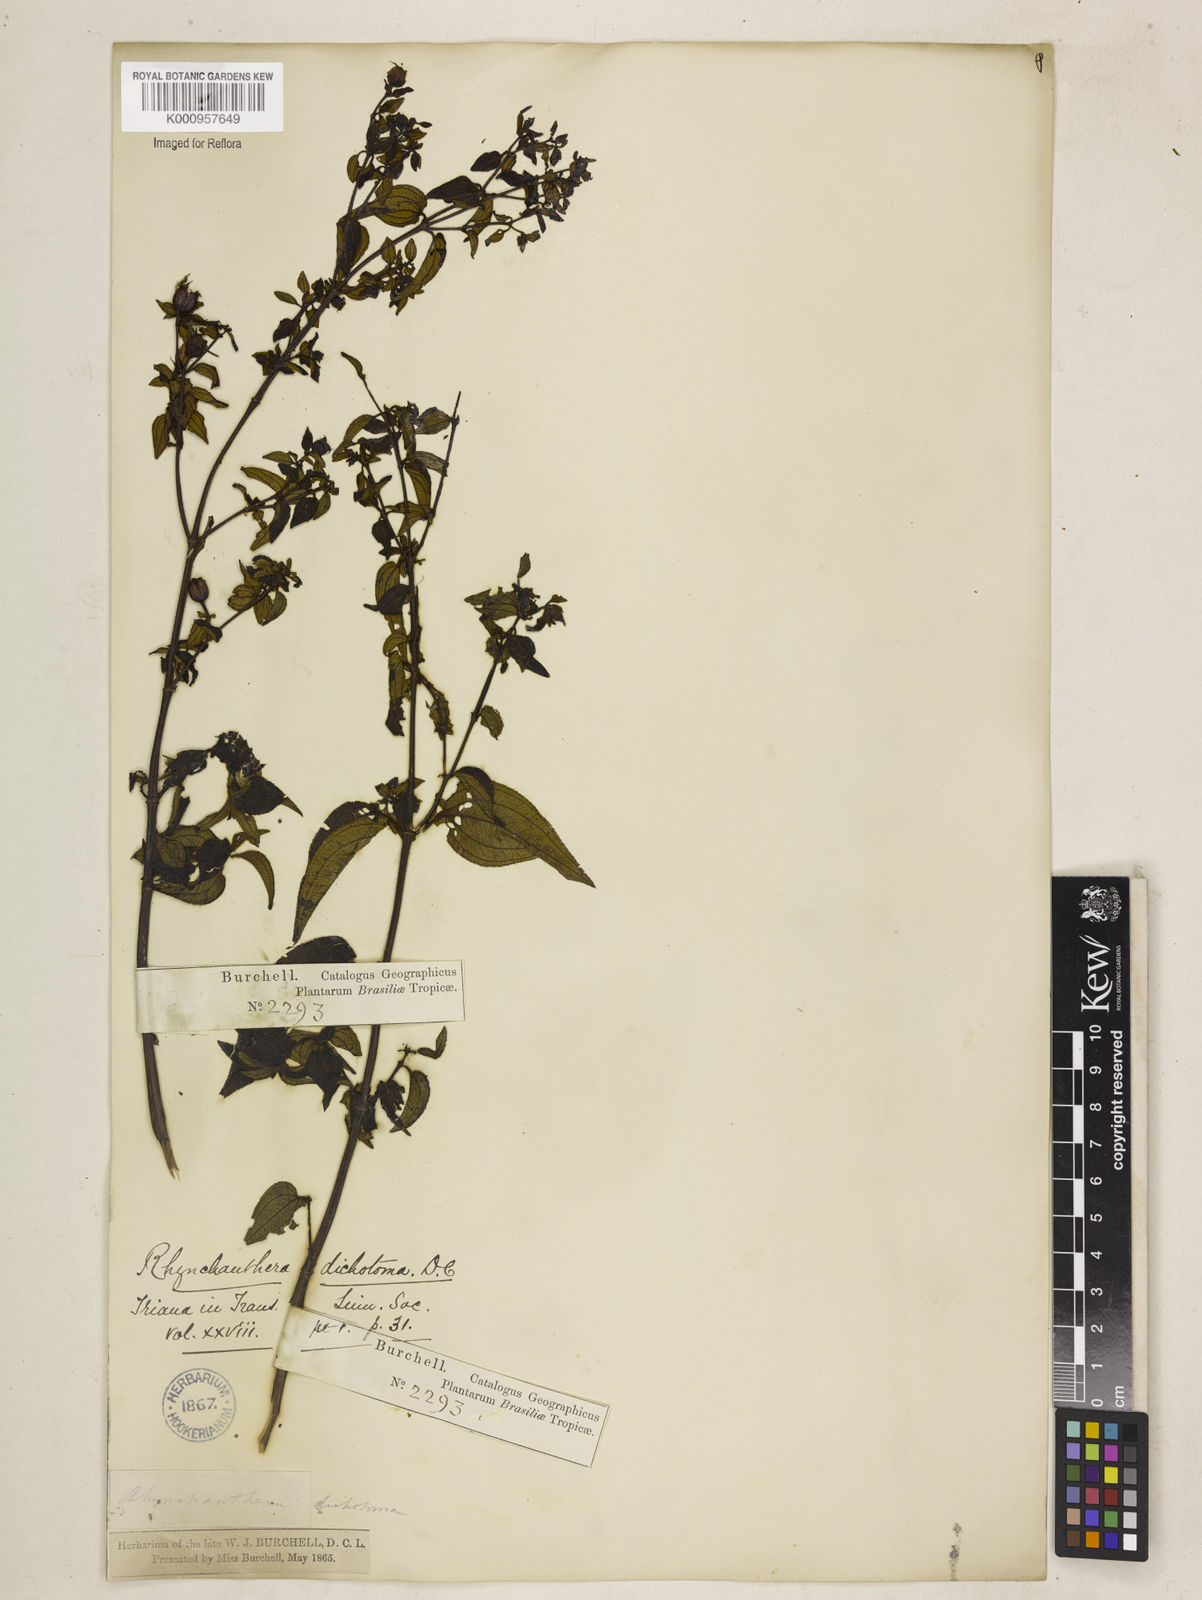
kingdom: Plantae
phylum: Tracheophyta
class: Magnoliopsida
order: Myrtales
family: Melastomataceae
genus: Rhynchanthera
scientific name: Rhynchanthera dichotoma
